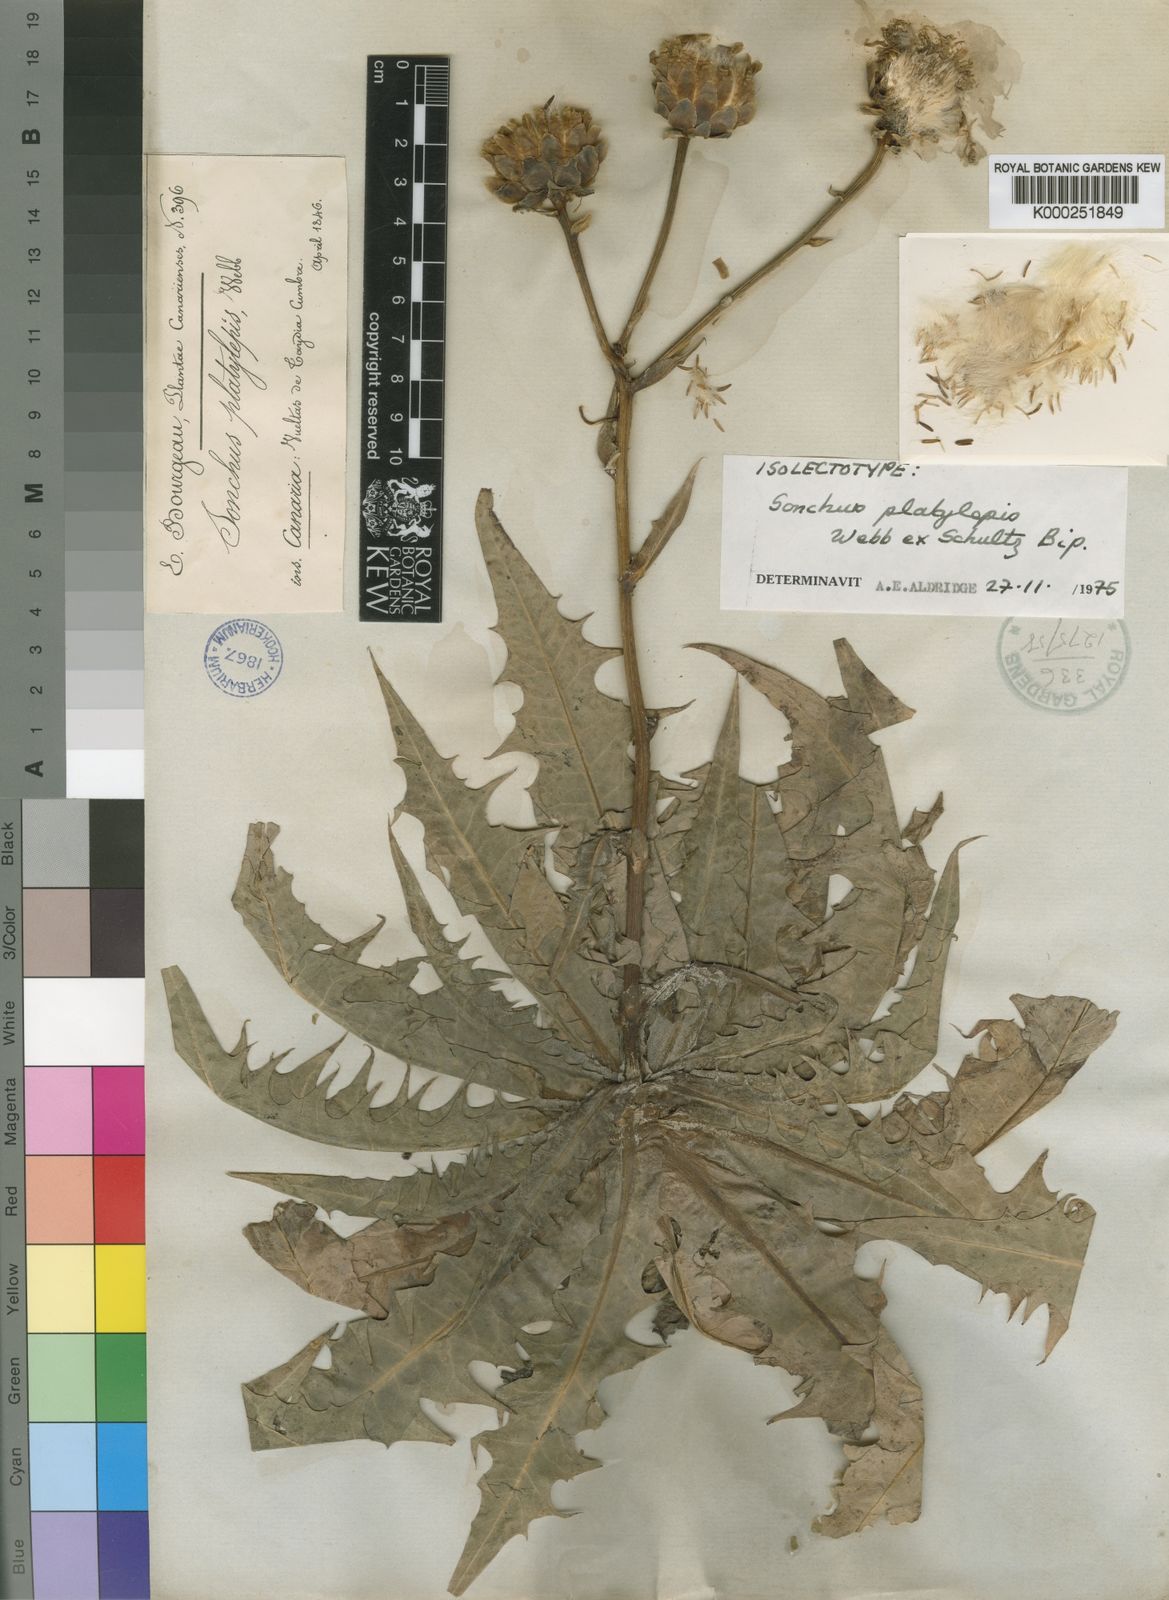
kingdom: Plantae
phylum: Tracheophyta
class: Magnoliopsida
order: Asterales
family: Asteraceae
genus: Sonchus
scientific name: Sonchus platylepis
